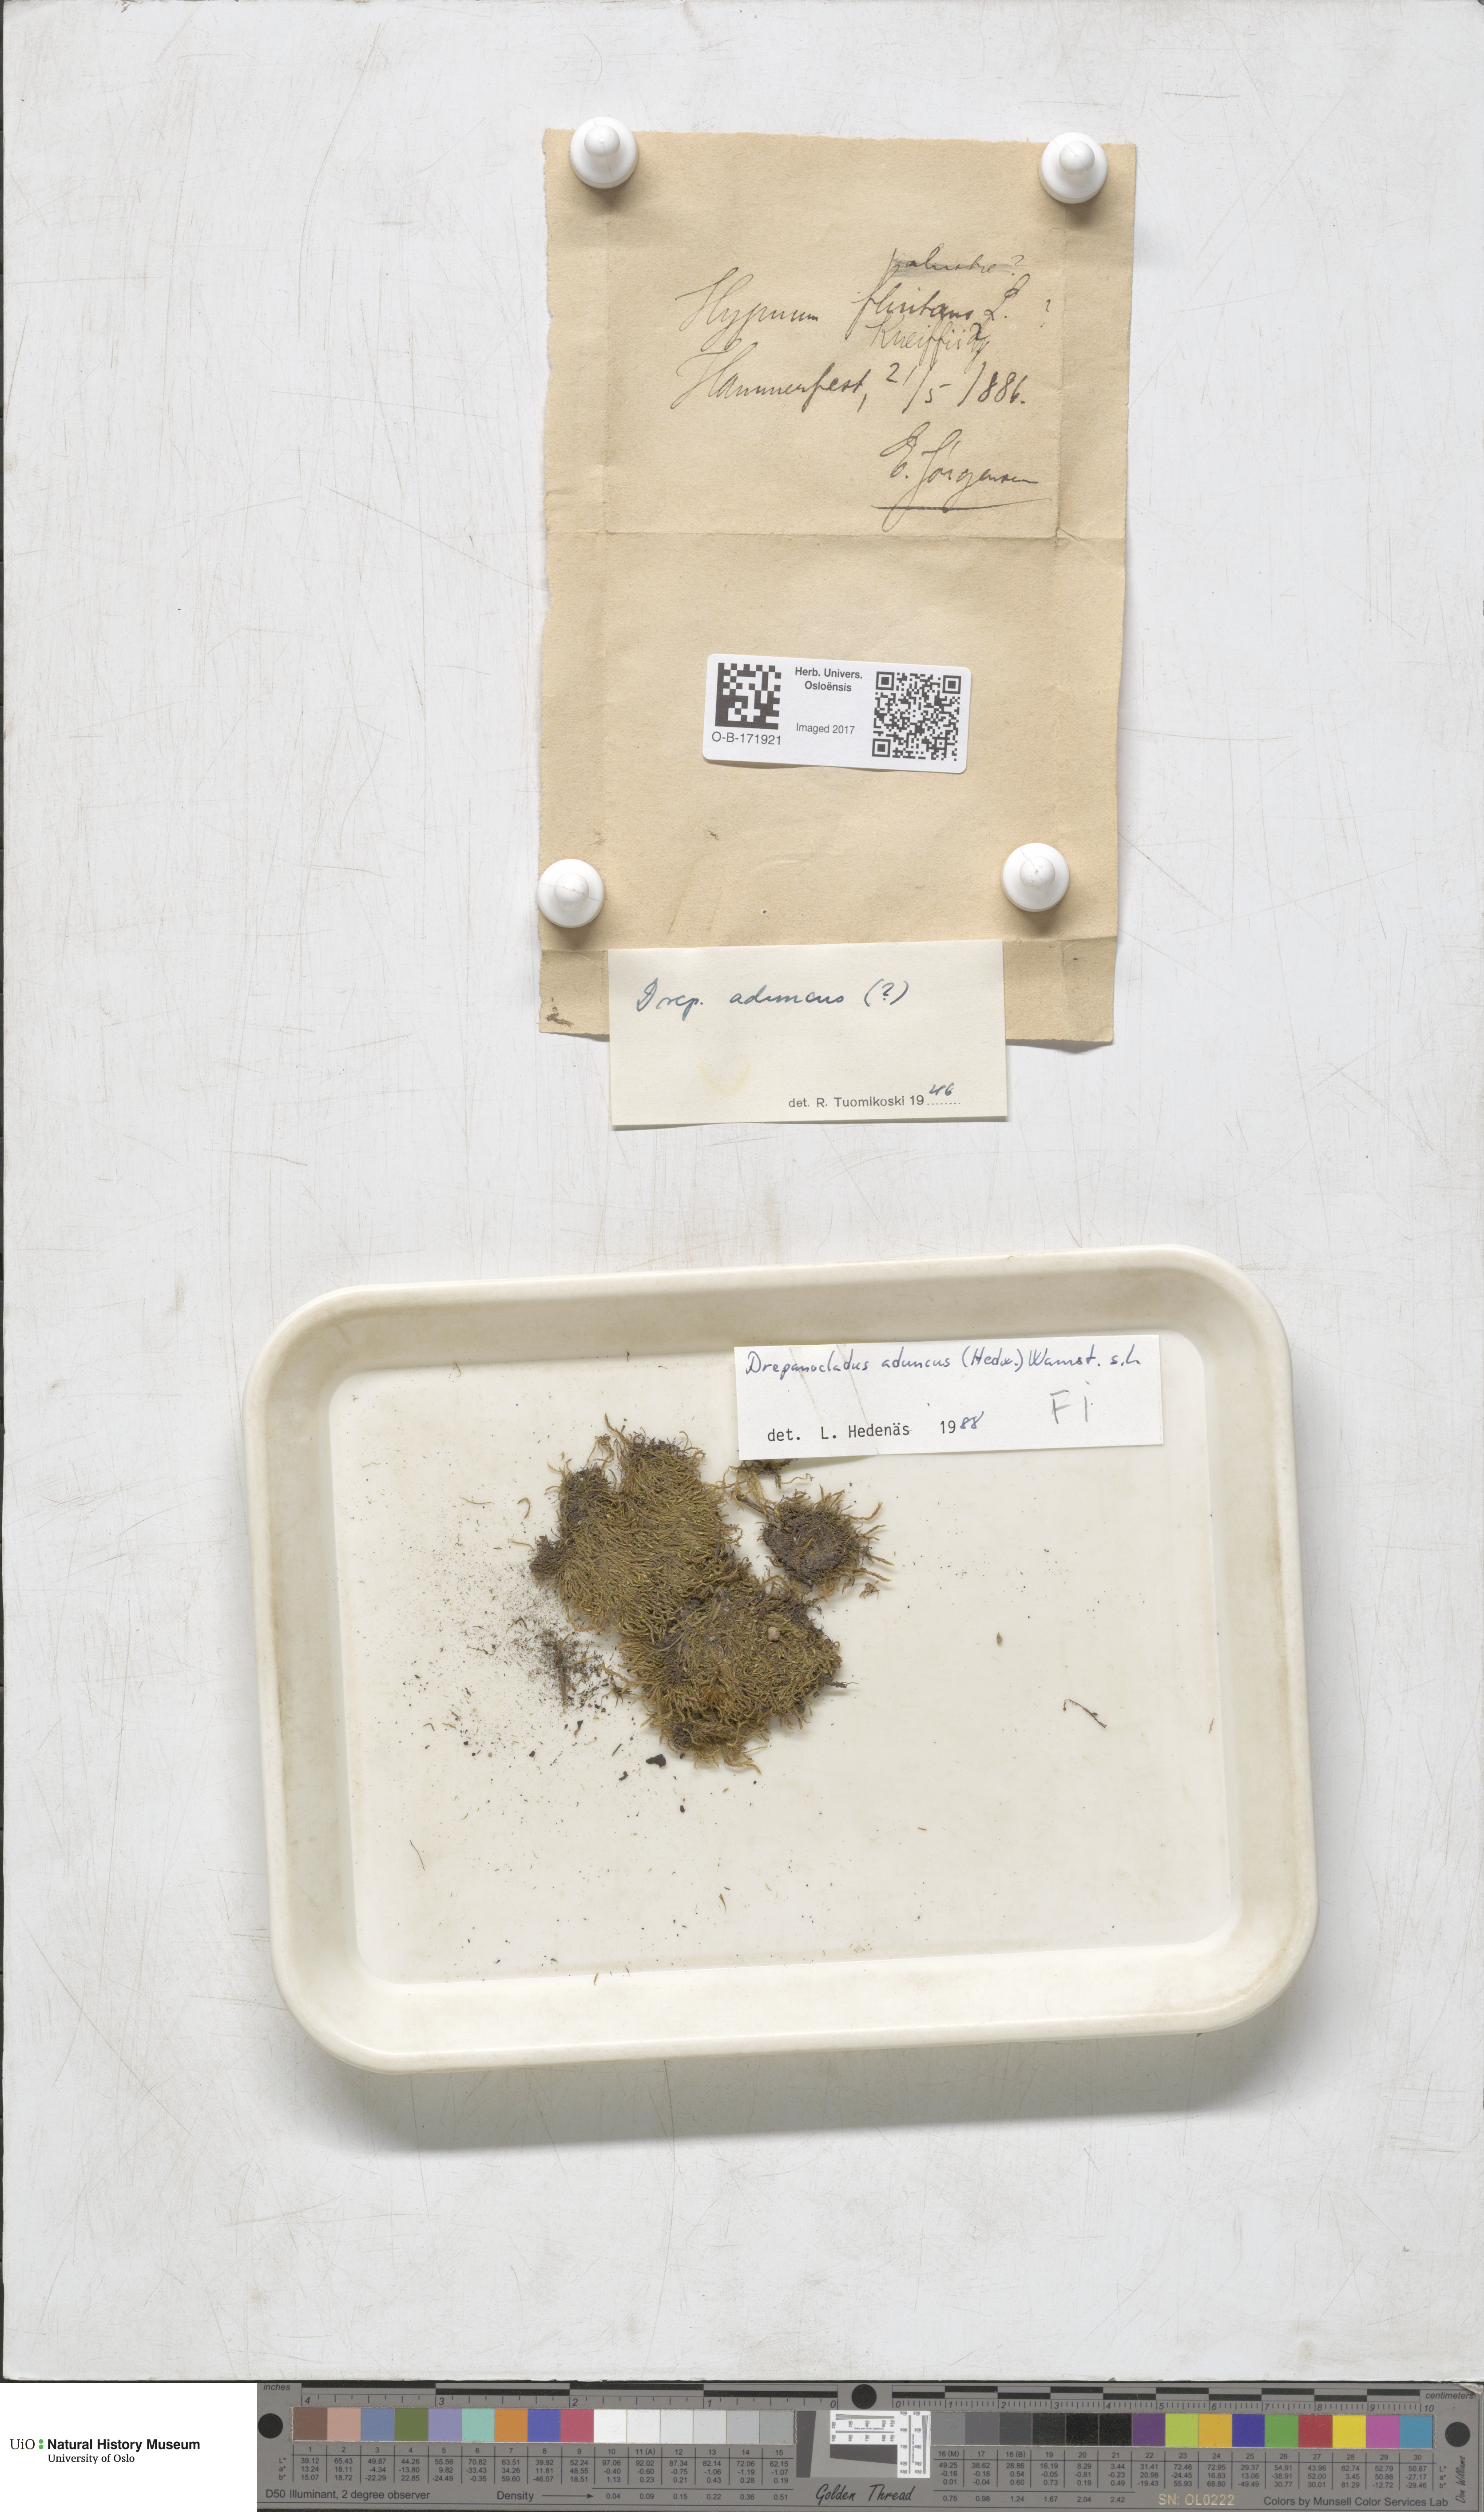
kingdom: Plantae
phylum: Bryophyta
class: Bryopsida
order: Hypnales
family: Amblystegiaceae
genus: Drepanocladus
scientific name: Drepanocladus aduncus
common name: Knieff's hook moss
